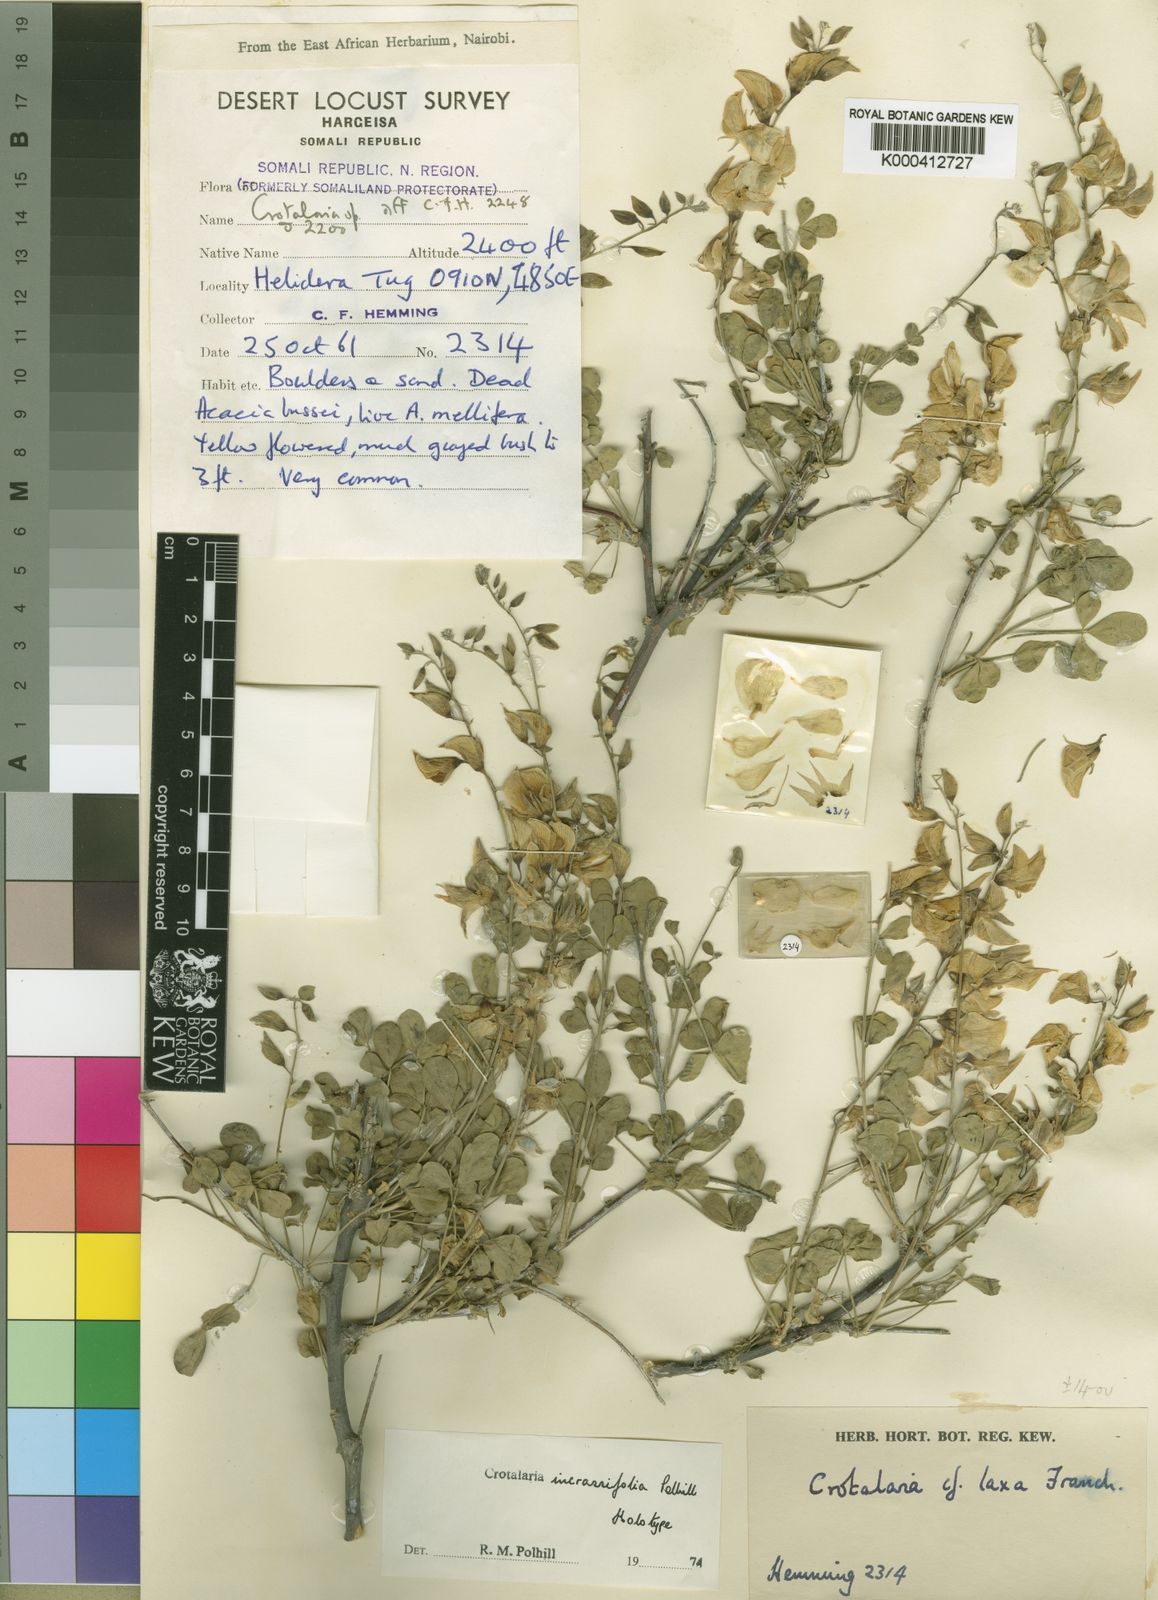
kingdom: Plantae
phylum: Tracheophyta
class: Magnoliopsida
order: Fabales
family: Fabaceae
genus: Crotalaria
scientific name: Crotalaria incrassifolia
